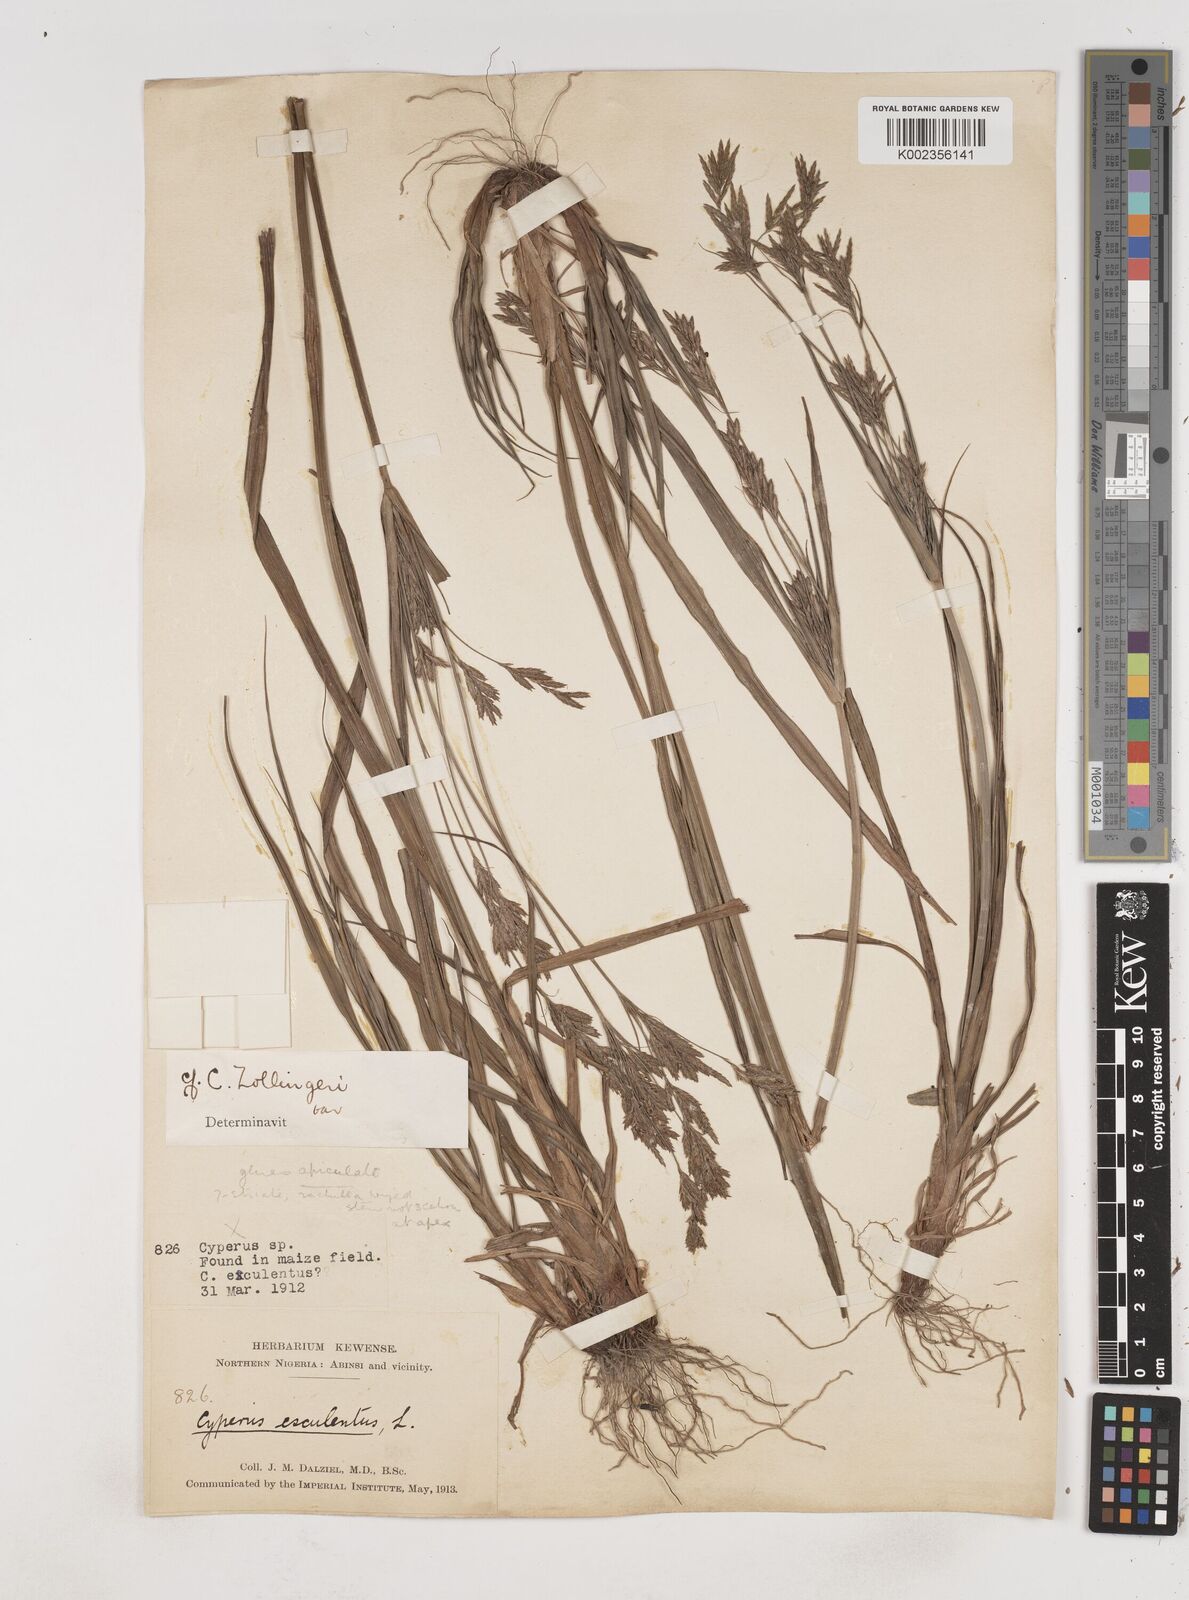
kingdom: Plantae
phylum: Tracheophyta
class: Liliopsida
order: Poales
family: Cyperaceae
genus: Cyperus
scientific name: Cyperus zollingeri
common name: Roadside flatsedge
